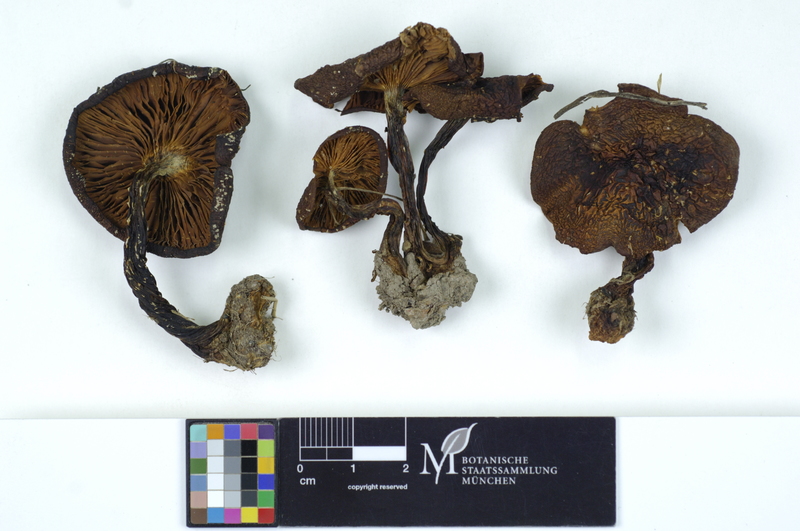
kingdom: Fungi
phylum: Basidiomycota
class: Agaricomycetes
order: Agaricales
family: Lyophyllaceae
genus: Lyophyllum
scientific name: Lyophyllum loricatum
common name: Gristly domecap
